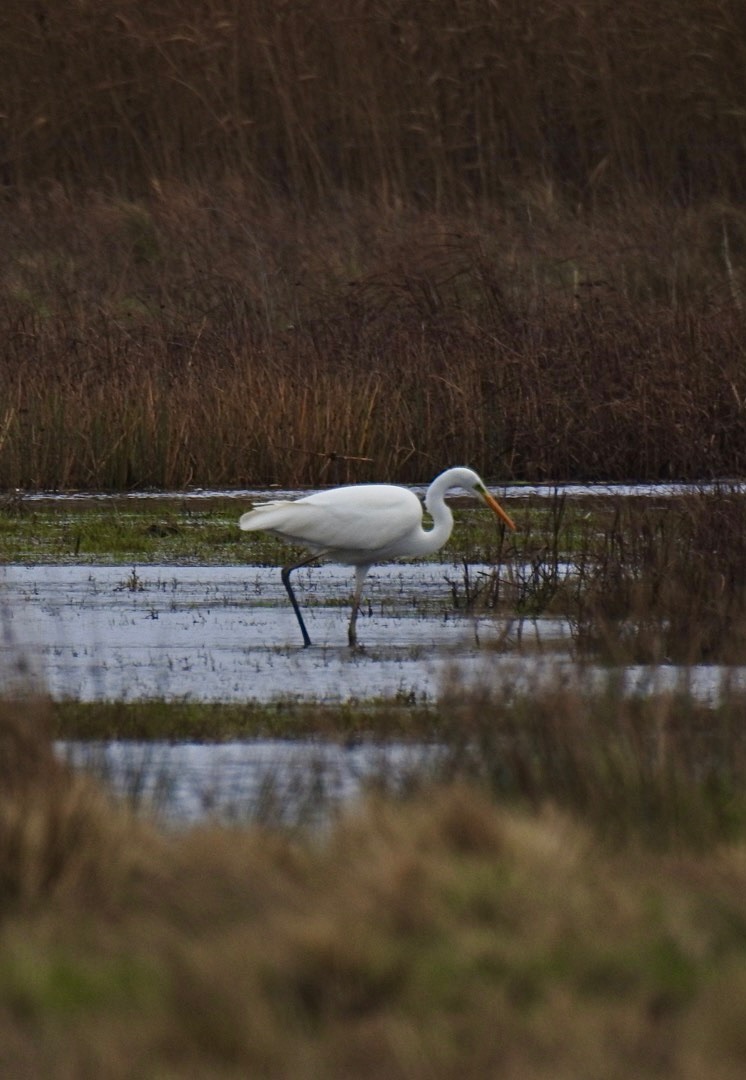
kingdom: Animalia
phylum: Chordata
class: Aves
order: Pelecaniformes
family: Ardeidae
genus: Ardea
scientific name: Ardea alba
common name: Sølvhejre
